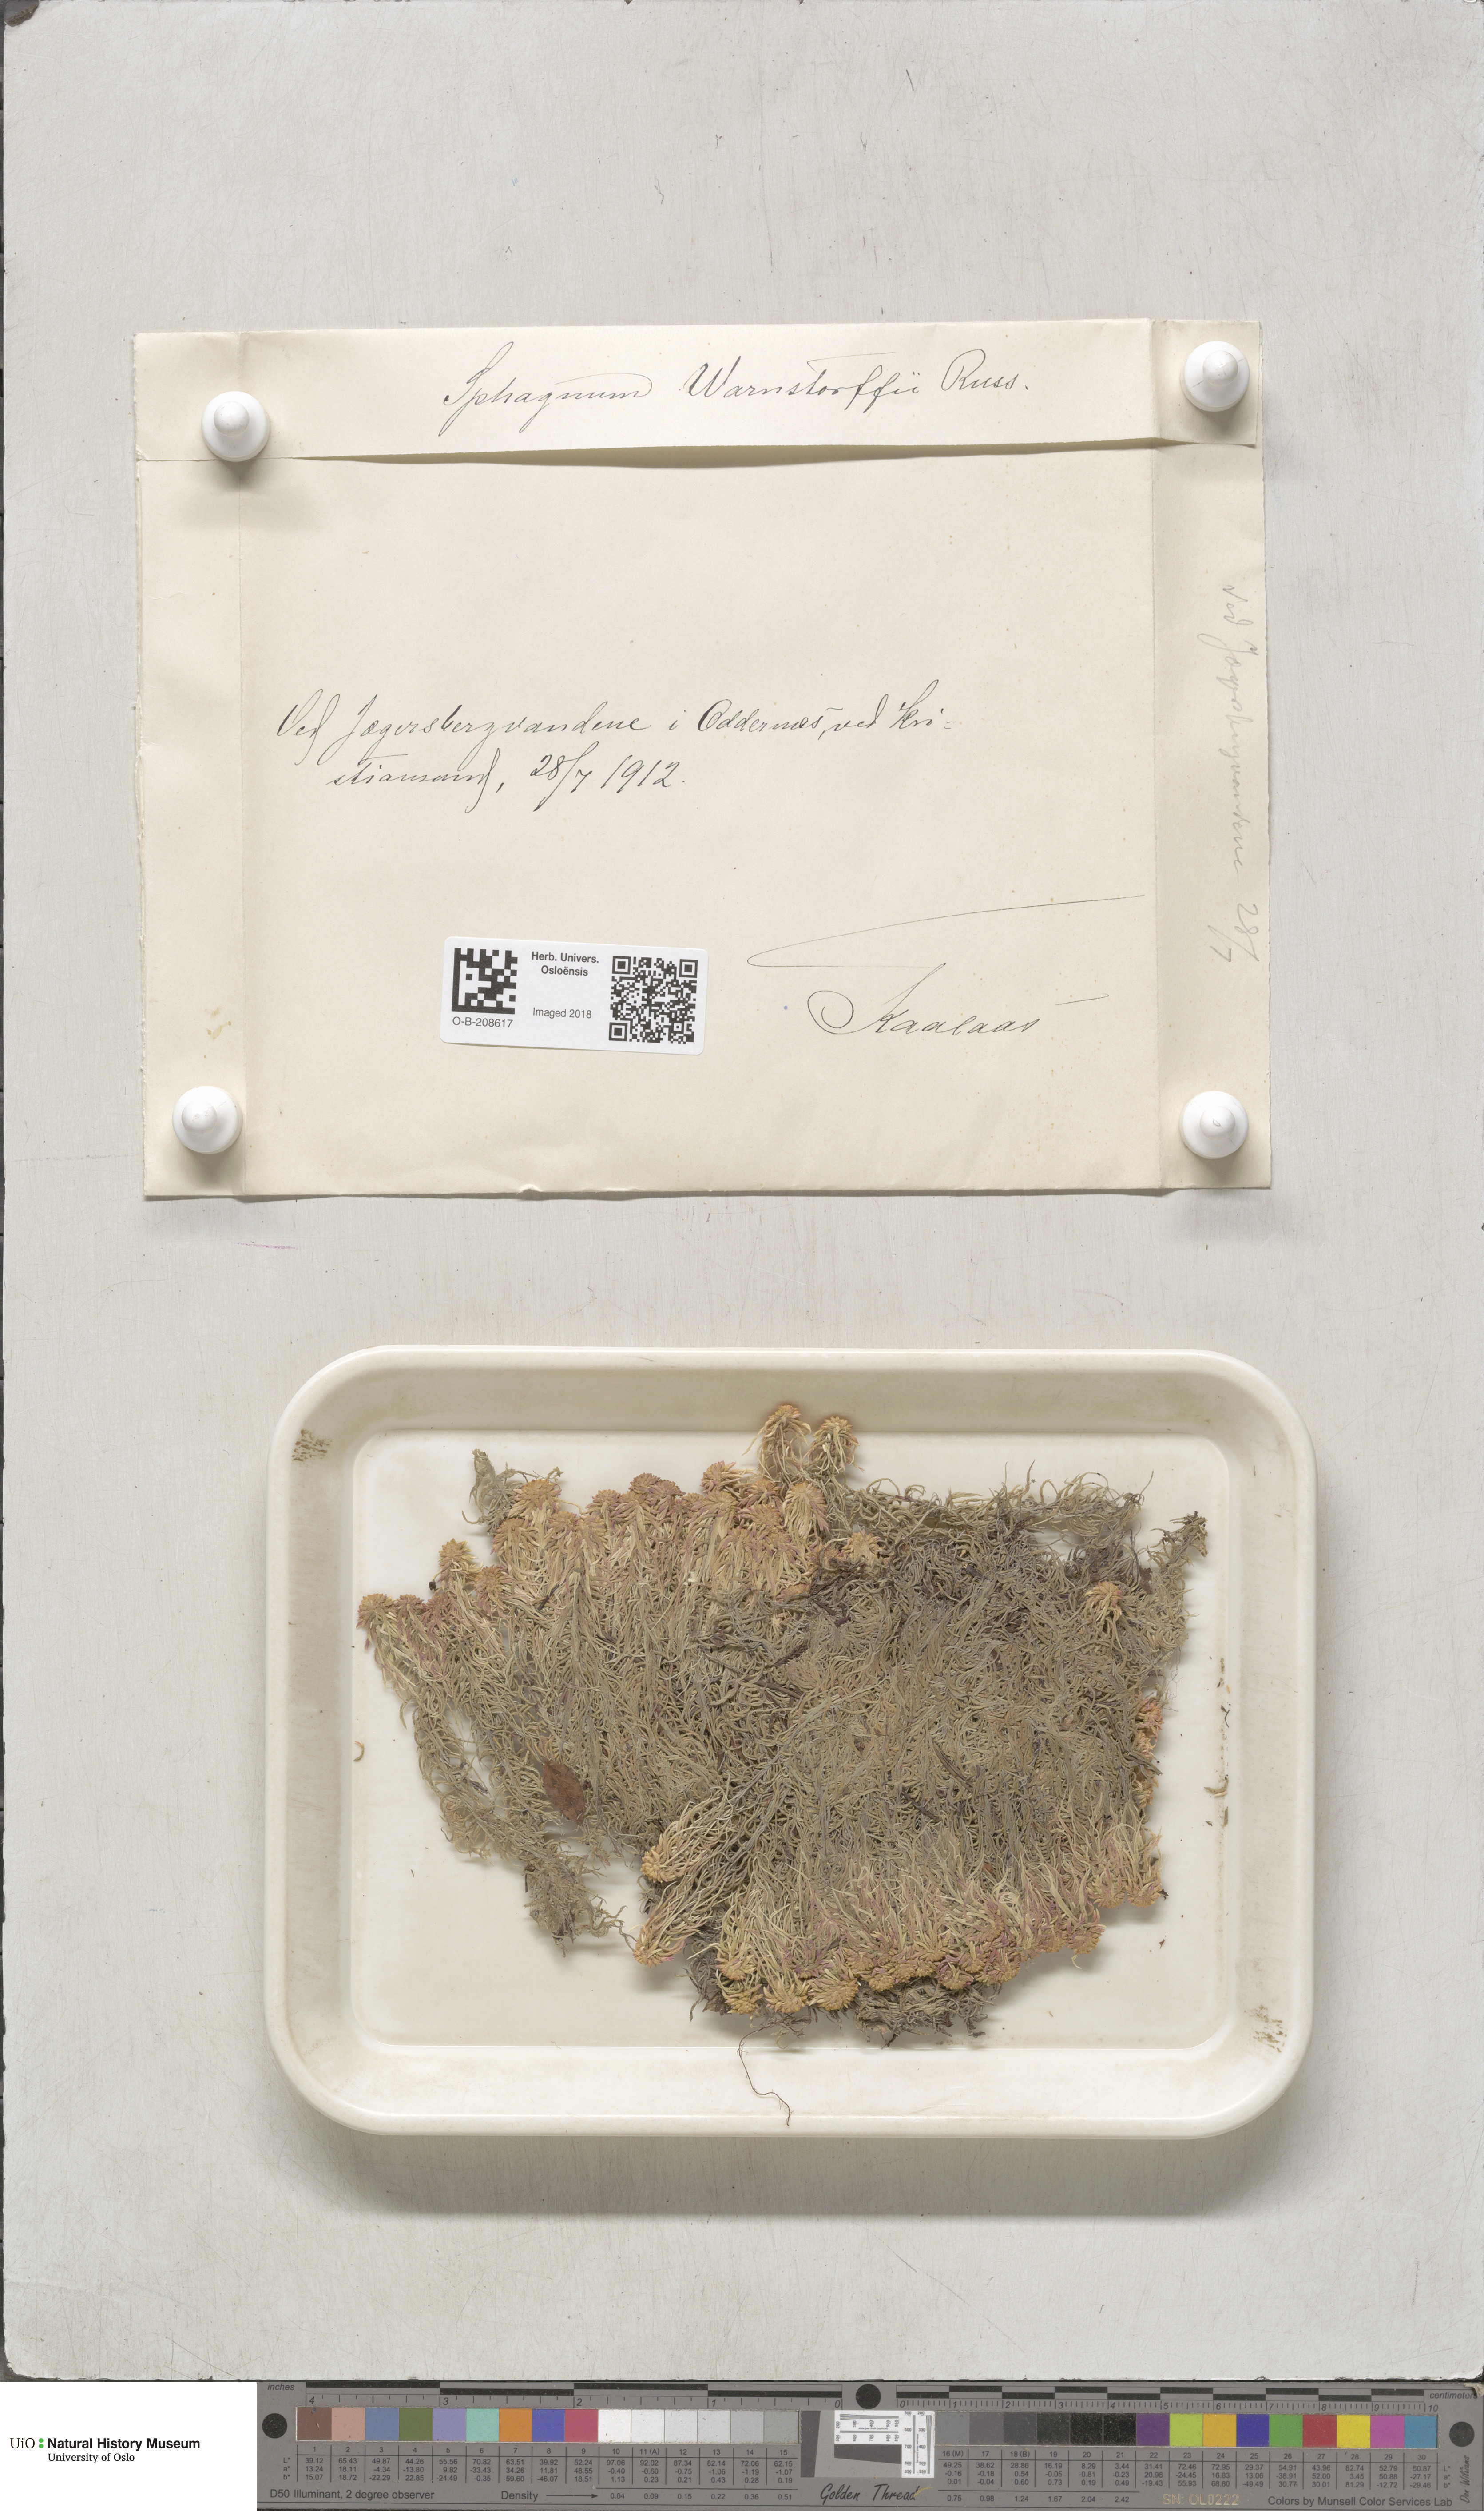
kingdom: Plantae
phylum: Bryophyta
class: Sphagnopsida
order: Sphagnales
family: Sphagnaceae
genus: Sphagnum
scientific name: Sphagnum warnstorfii
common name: Warnstorf's peat moss
